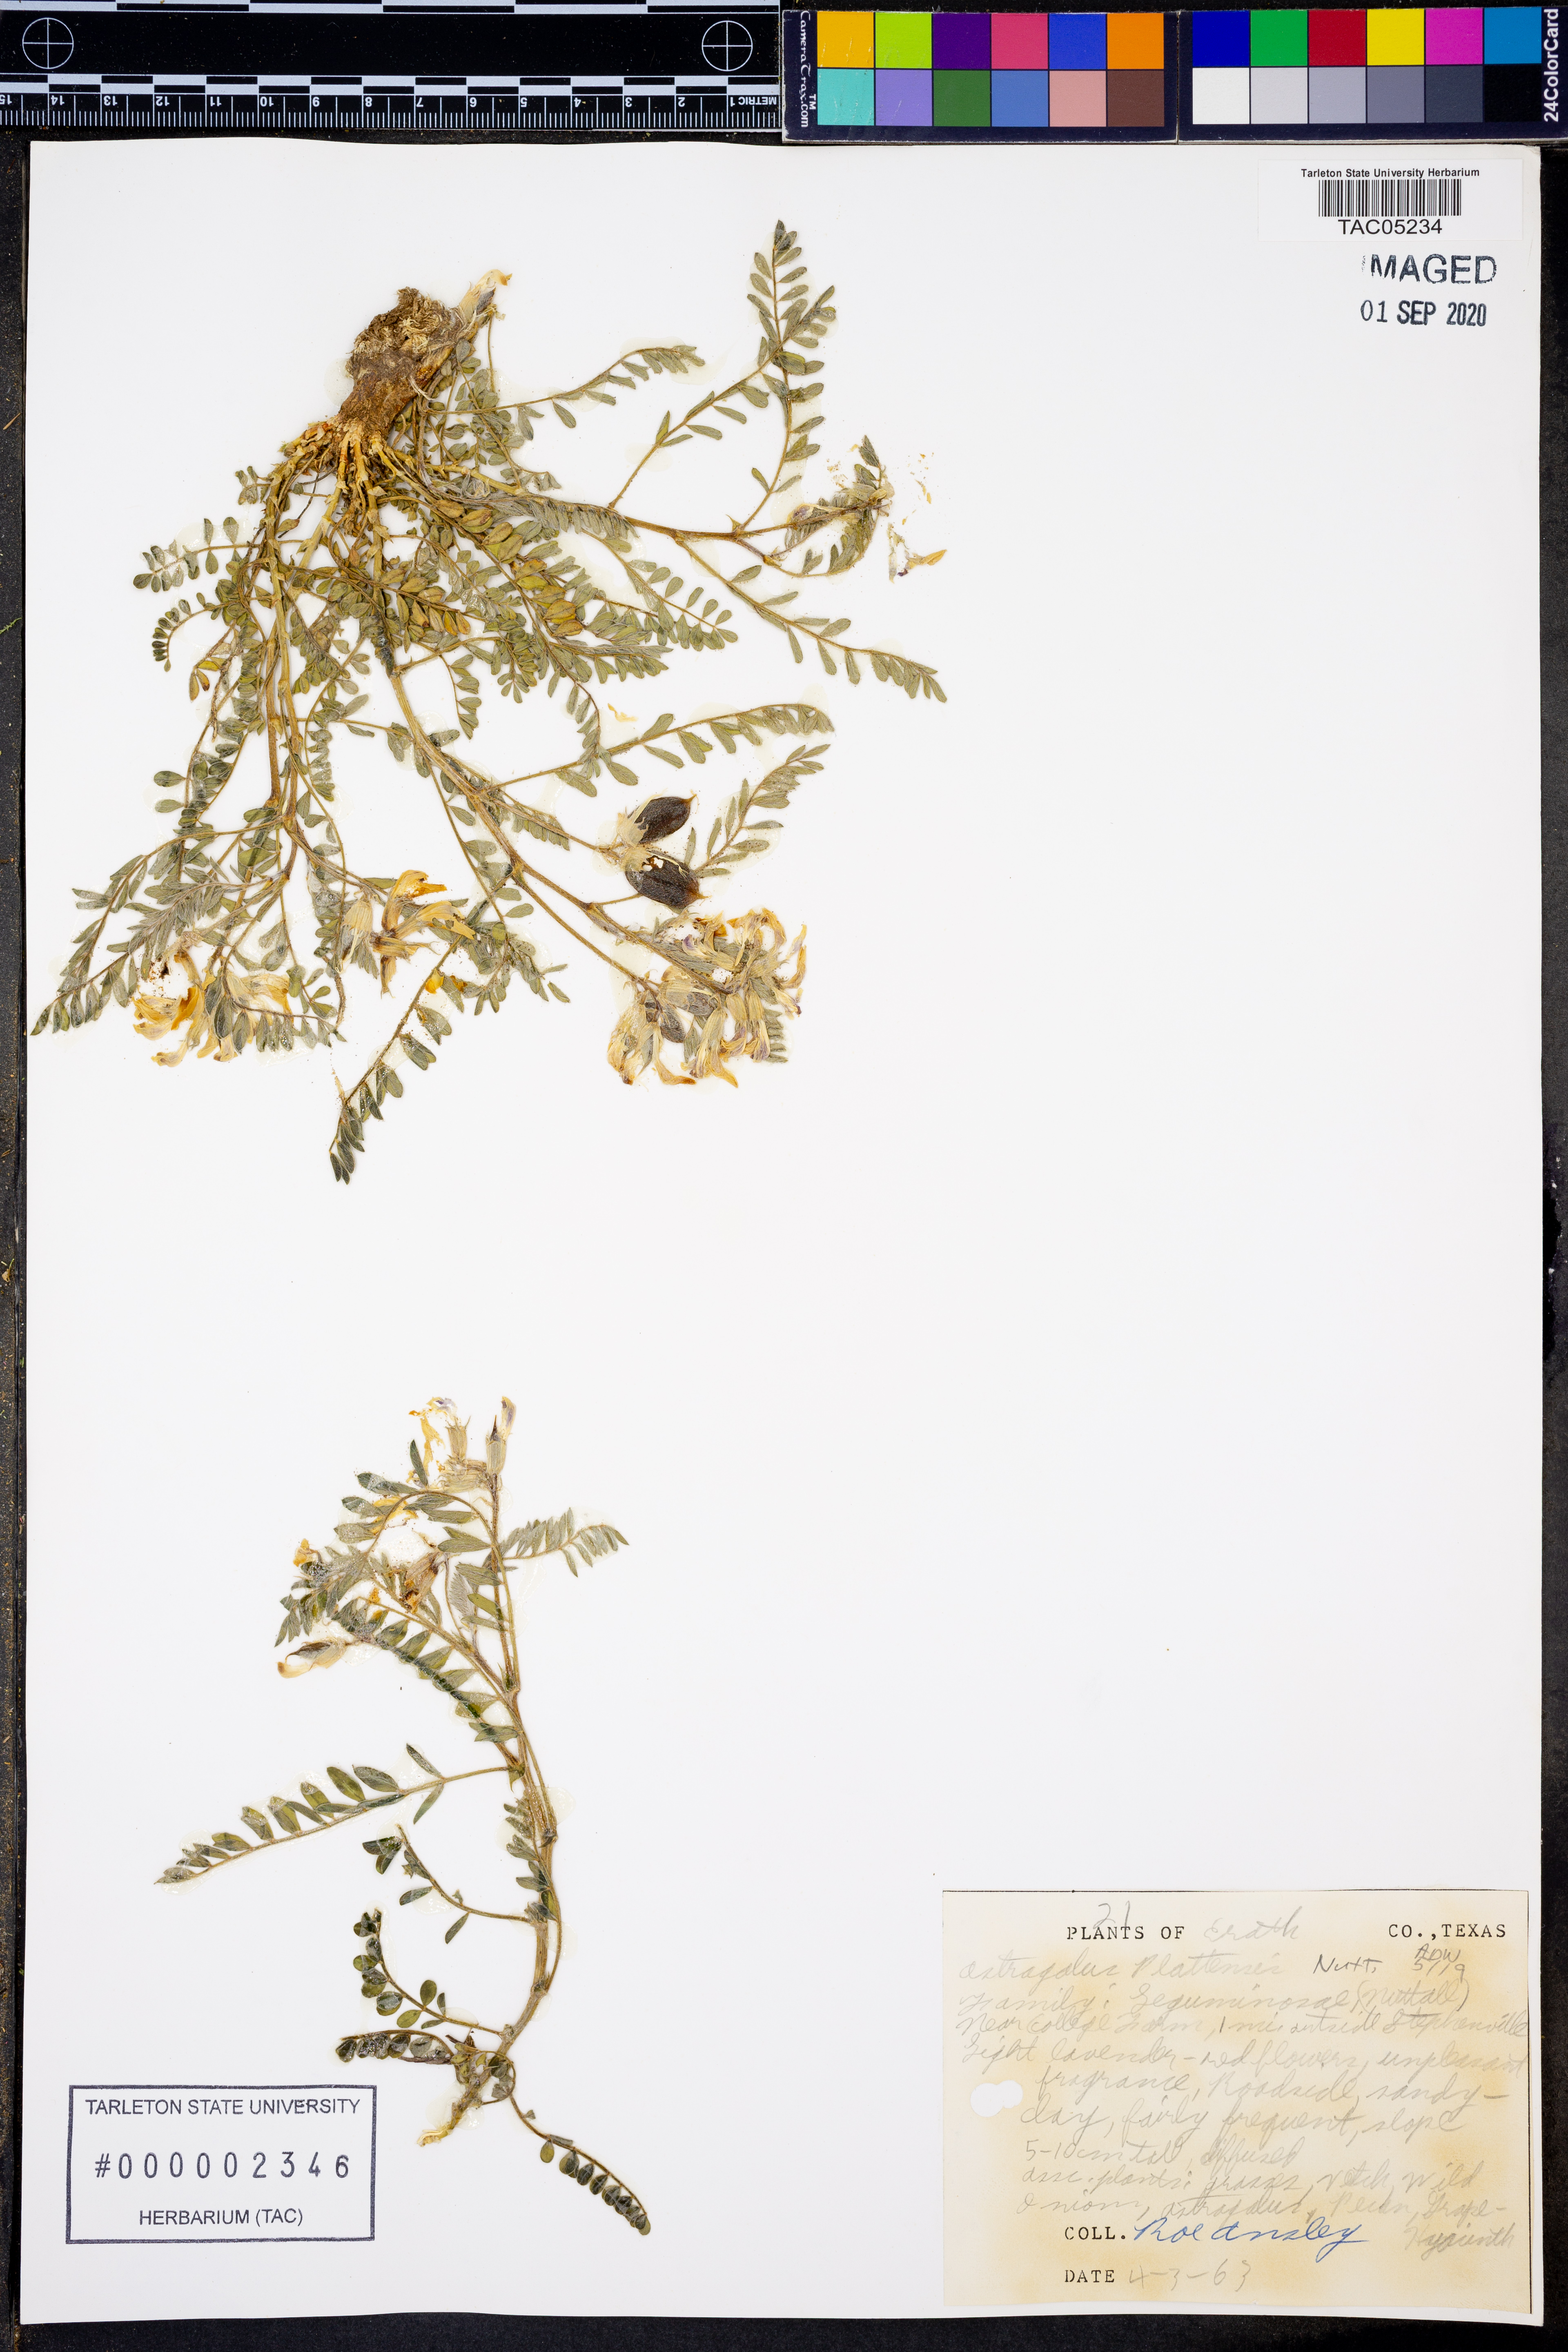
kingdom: Plantae
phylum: Tracheophyta
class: Magnoliopsida
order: Fabales
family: Fabaceae
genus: Astragalus
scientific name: Astragalus plattensis
